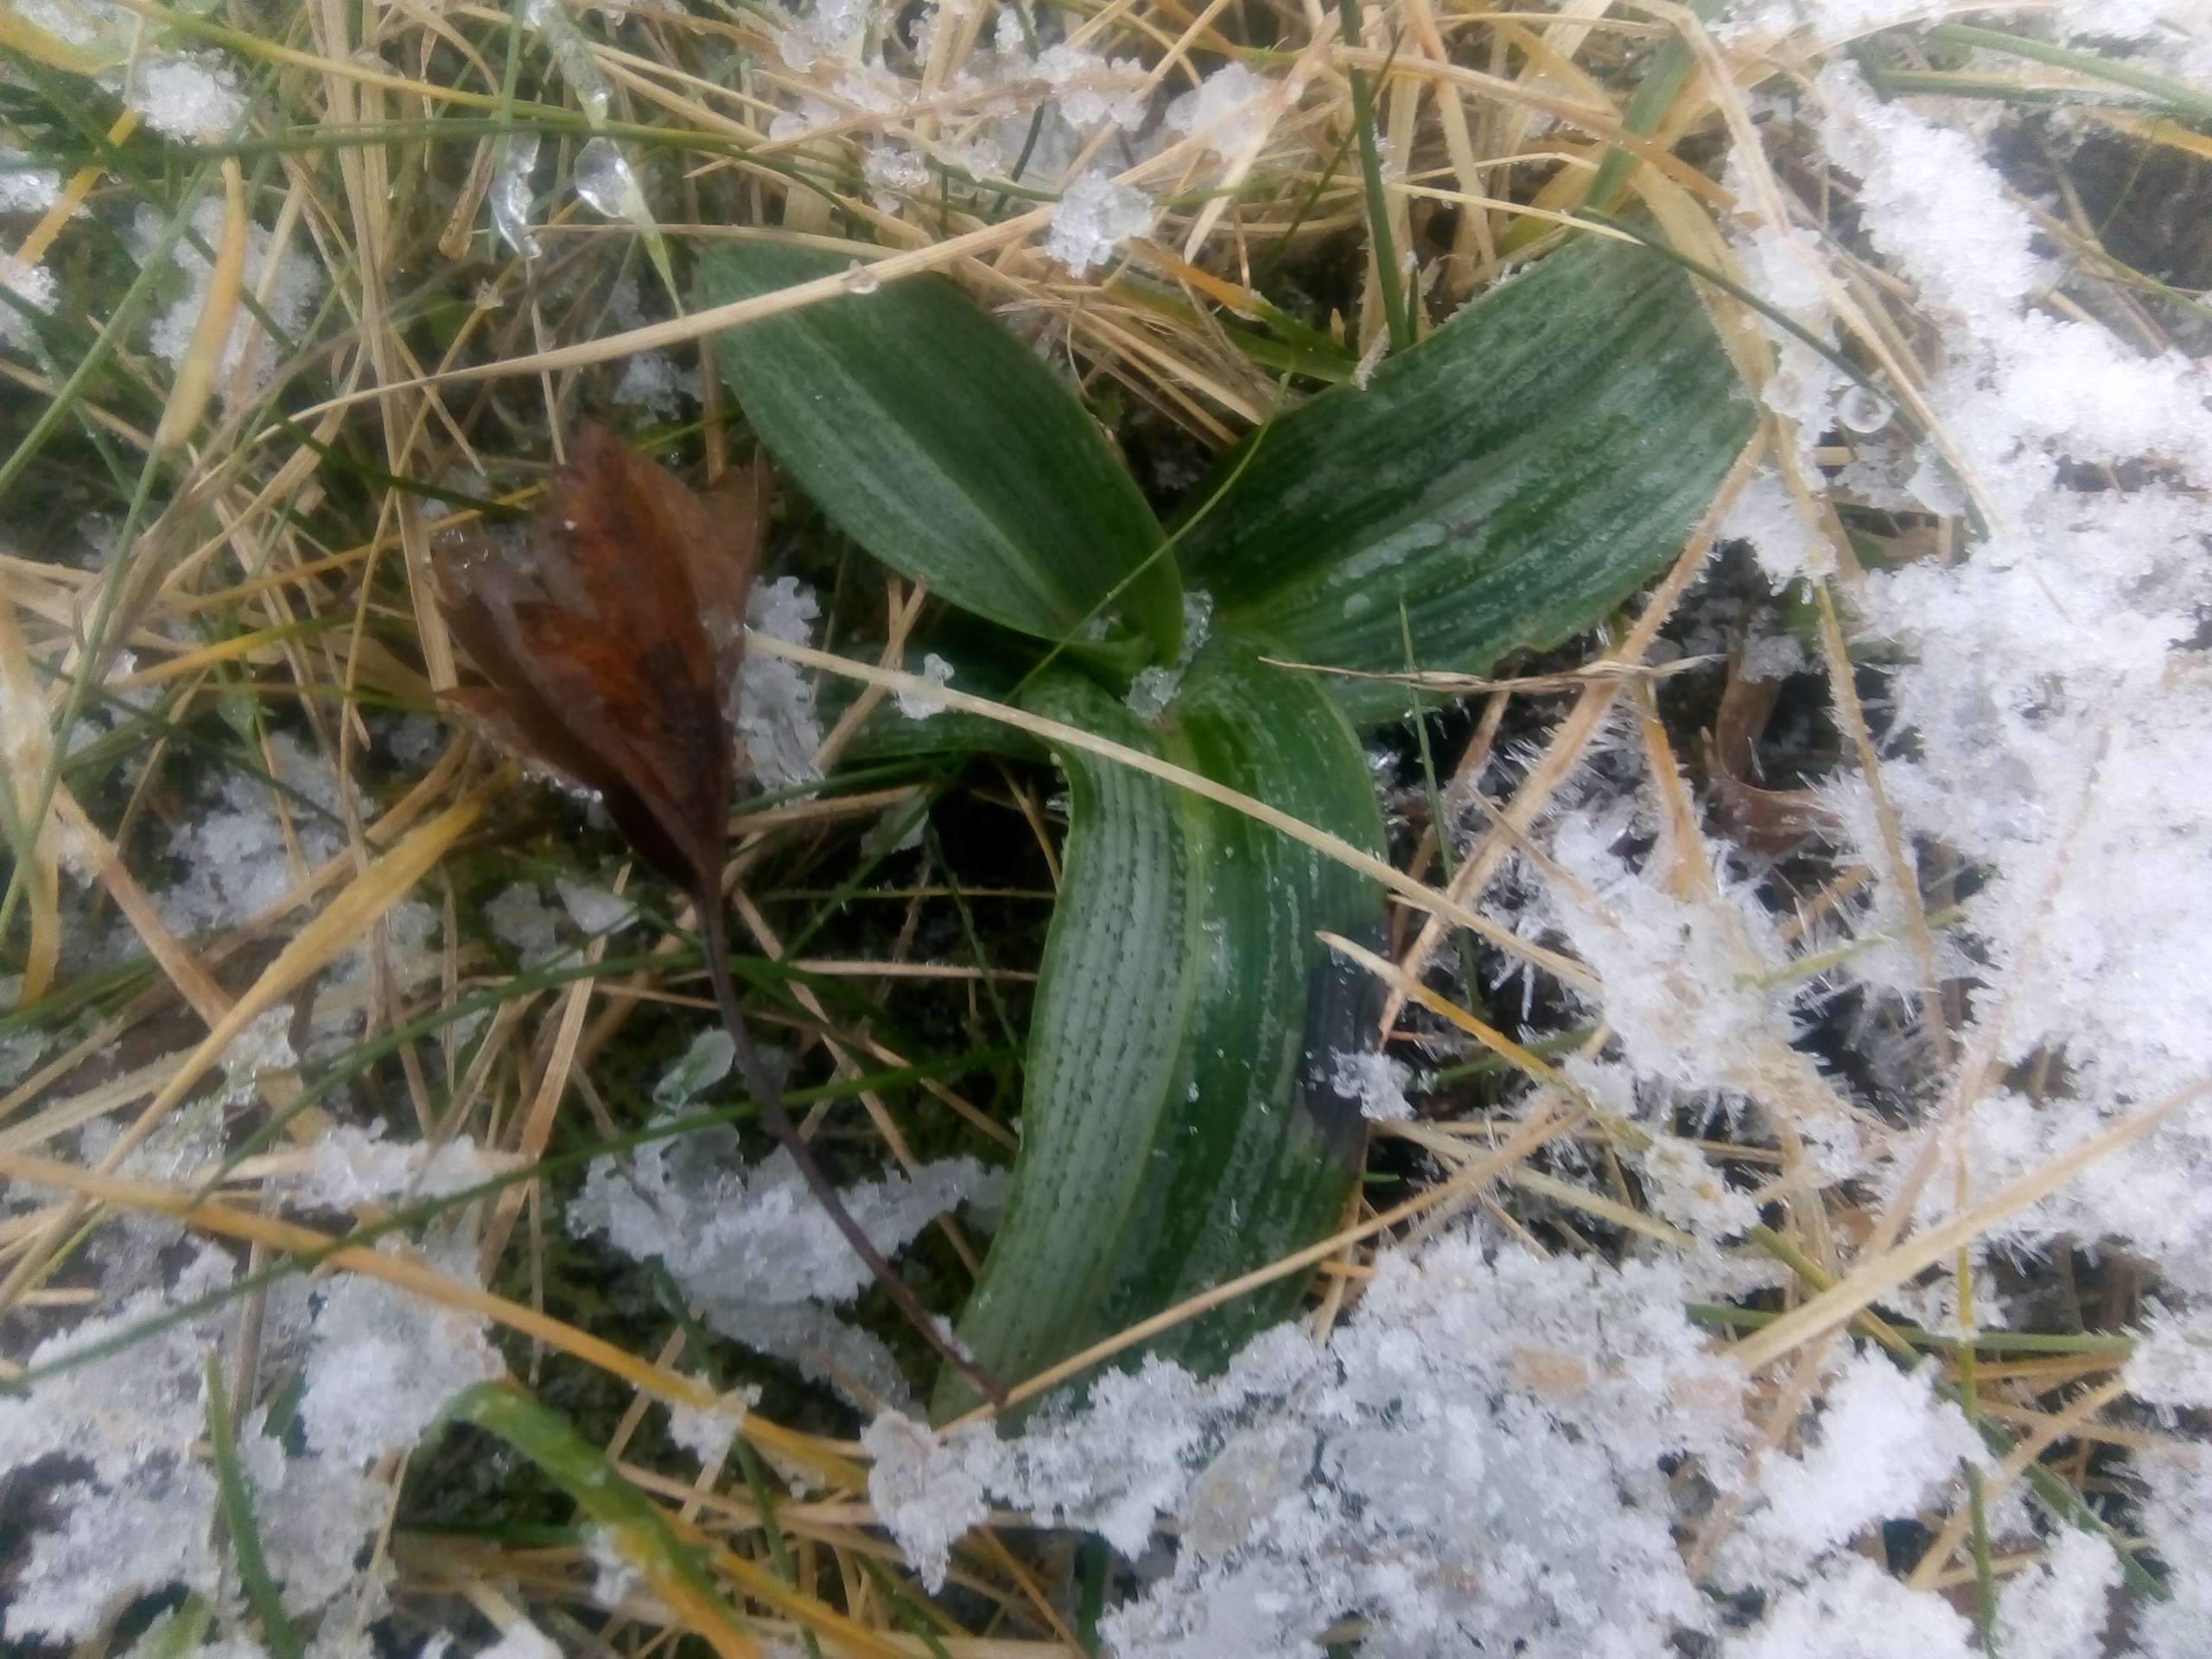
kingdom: Plantae
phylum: Tracheophyta
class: Liliopsida
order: Asparagales
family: Orchidaceae
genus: Ophrys
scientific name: Ophrys apifera
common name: Biblomst
